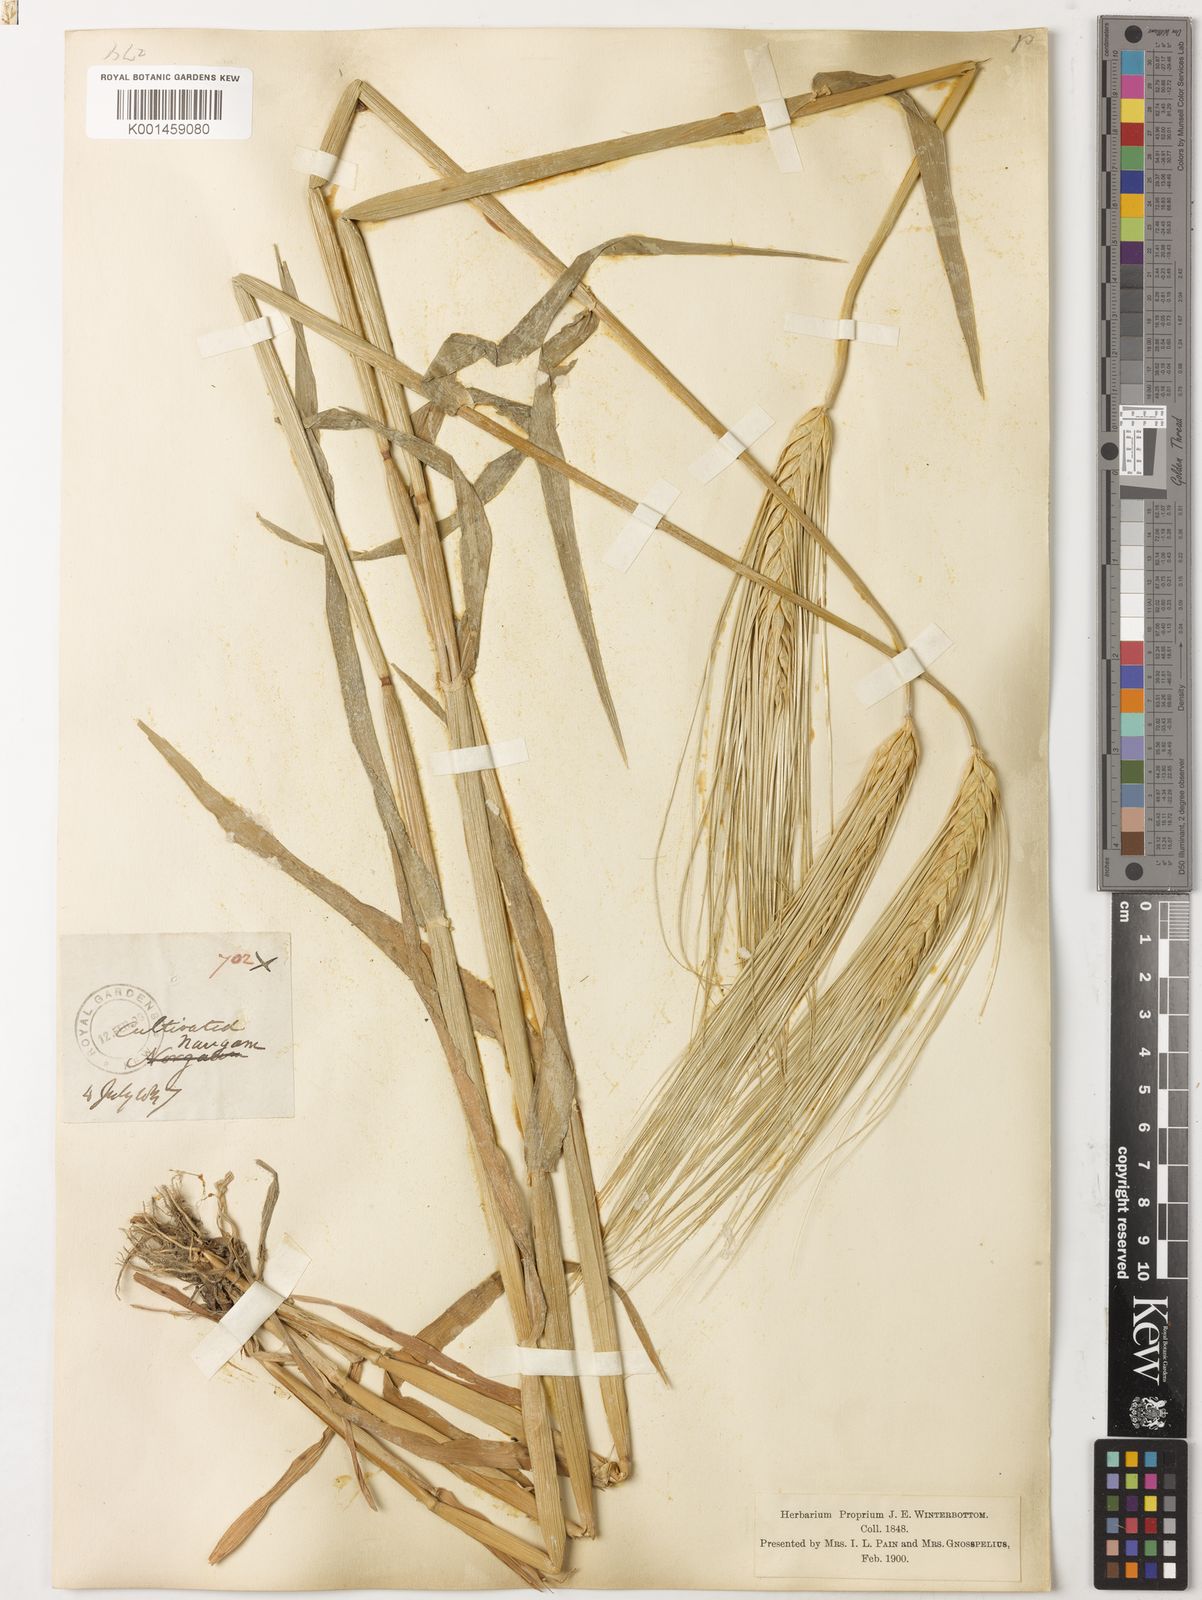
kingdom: Plantae
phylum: Tracheophyta
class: Liliopsida
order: Poales
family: Poaceae
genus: Hordeum
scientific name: Hordeum vulgare
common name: Common barley
